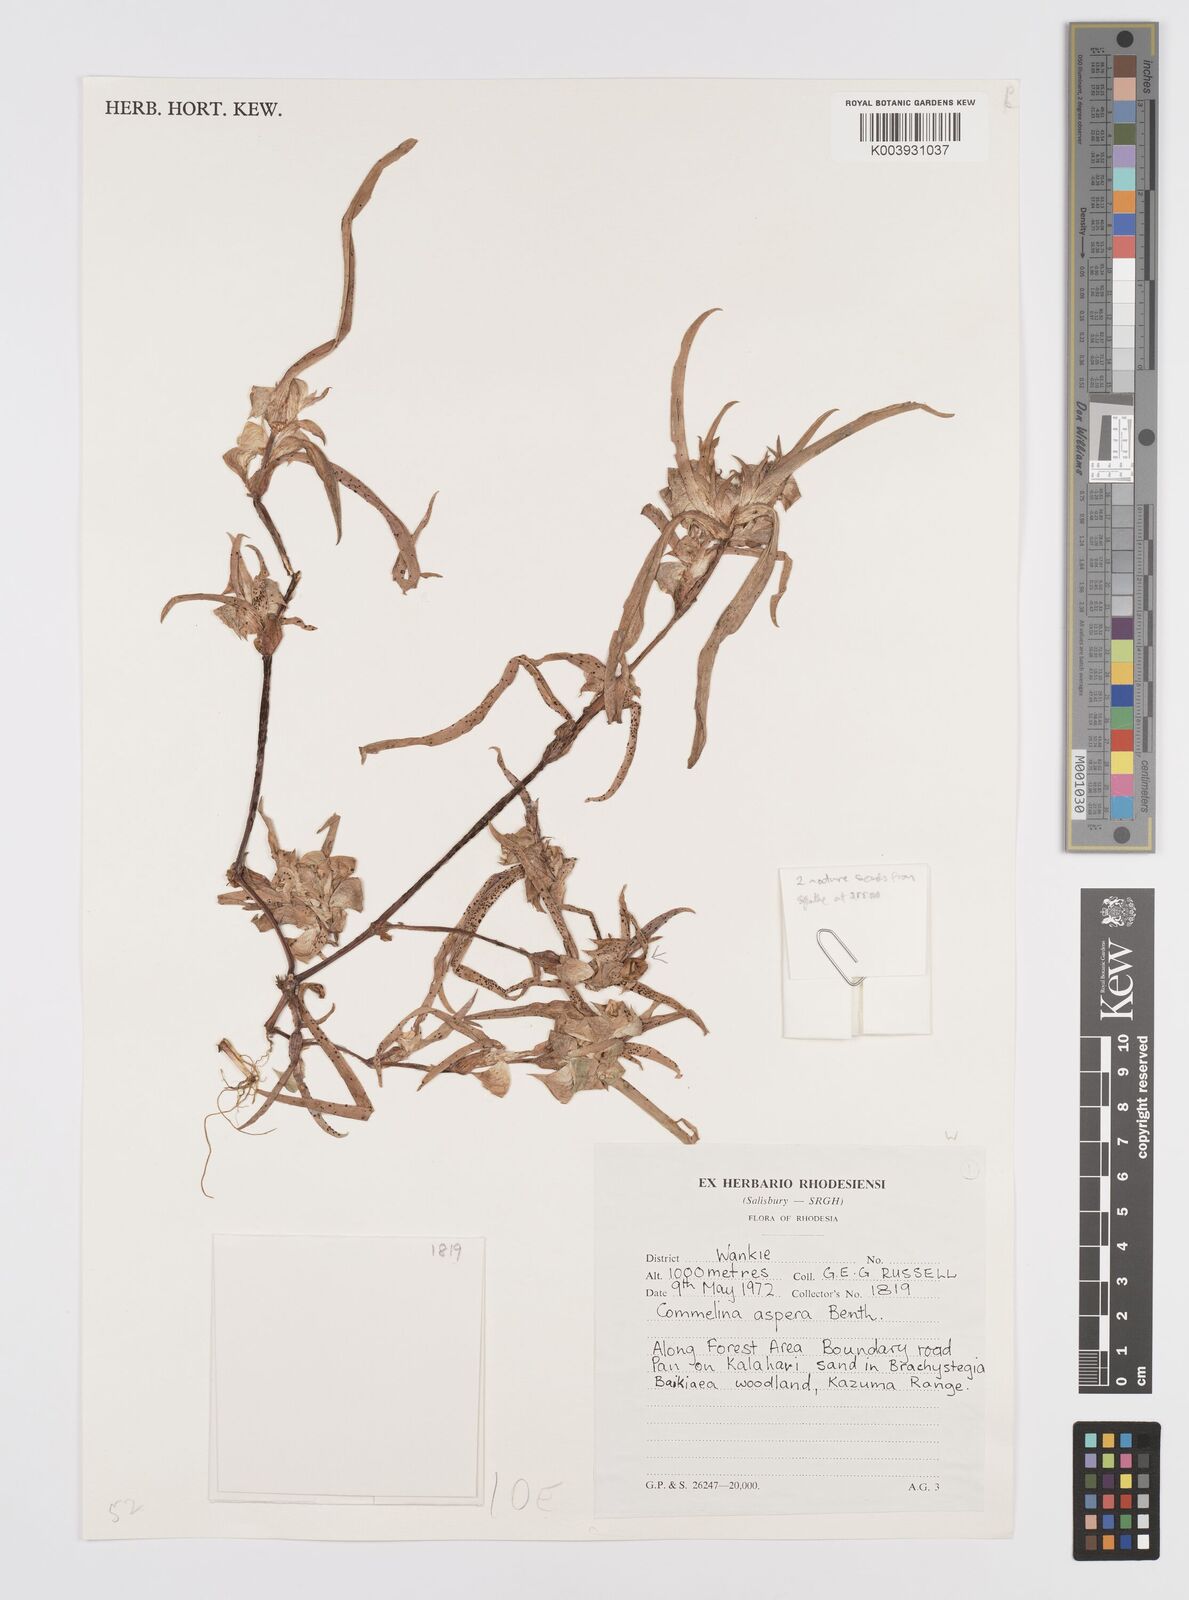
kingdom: Plantae
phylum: Tracheophyta
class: Liliopsida
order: Commelinales
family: Commelinaceae
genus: Commelina
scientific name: Commelina aspera
